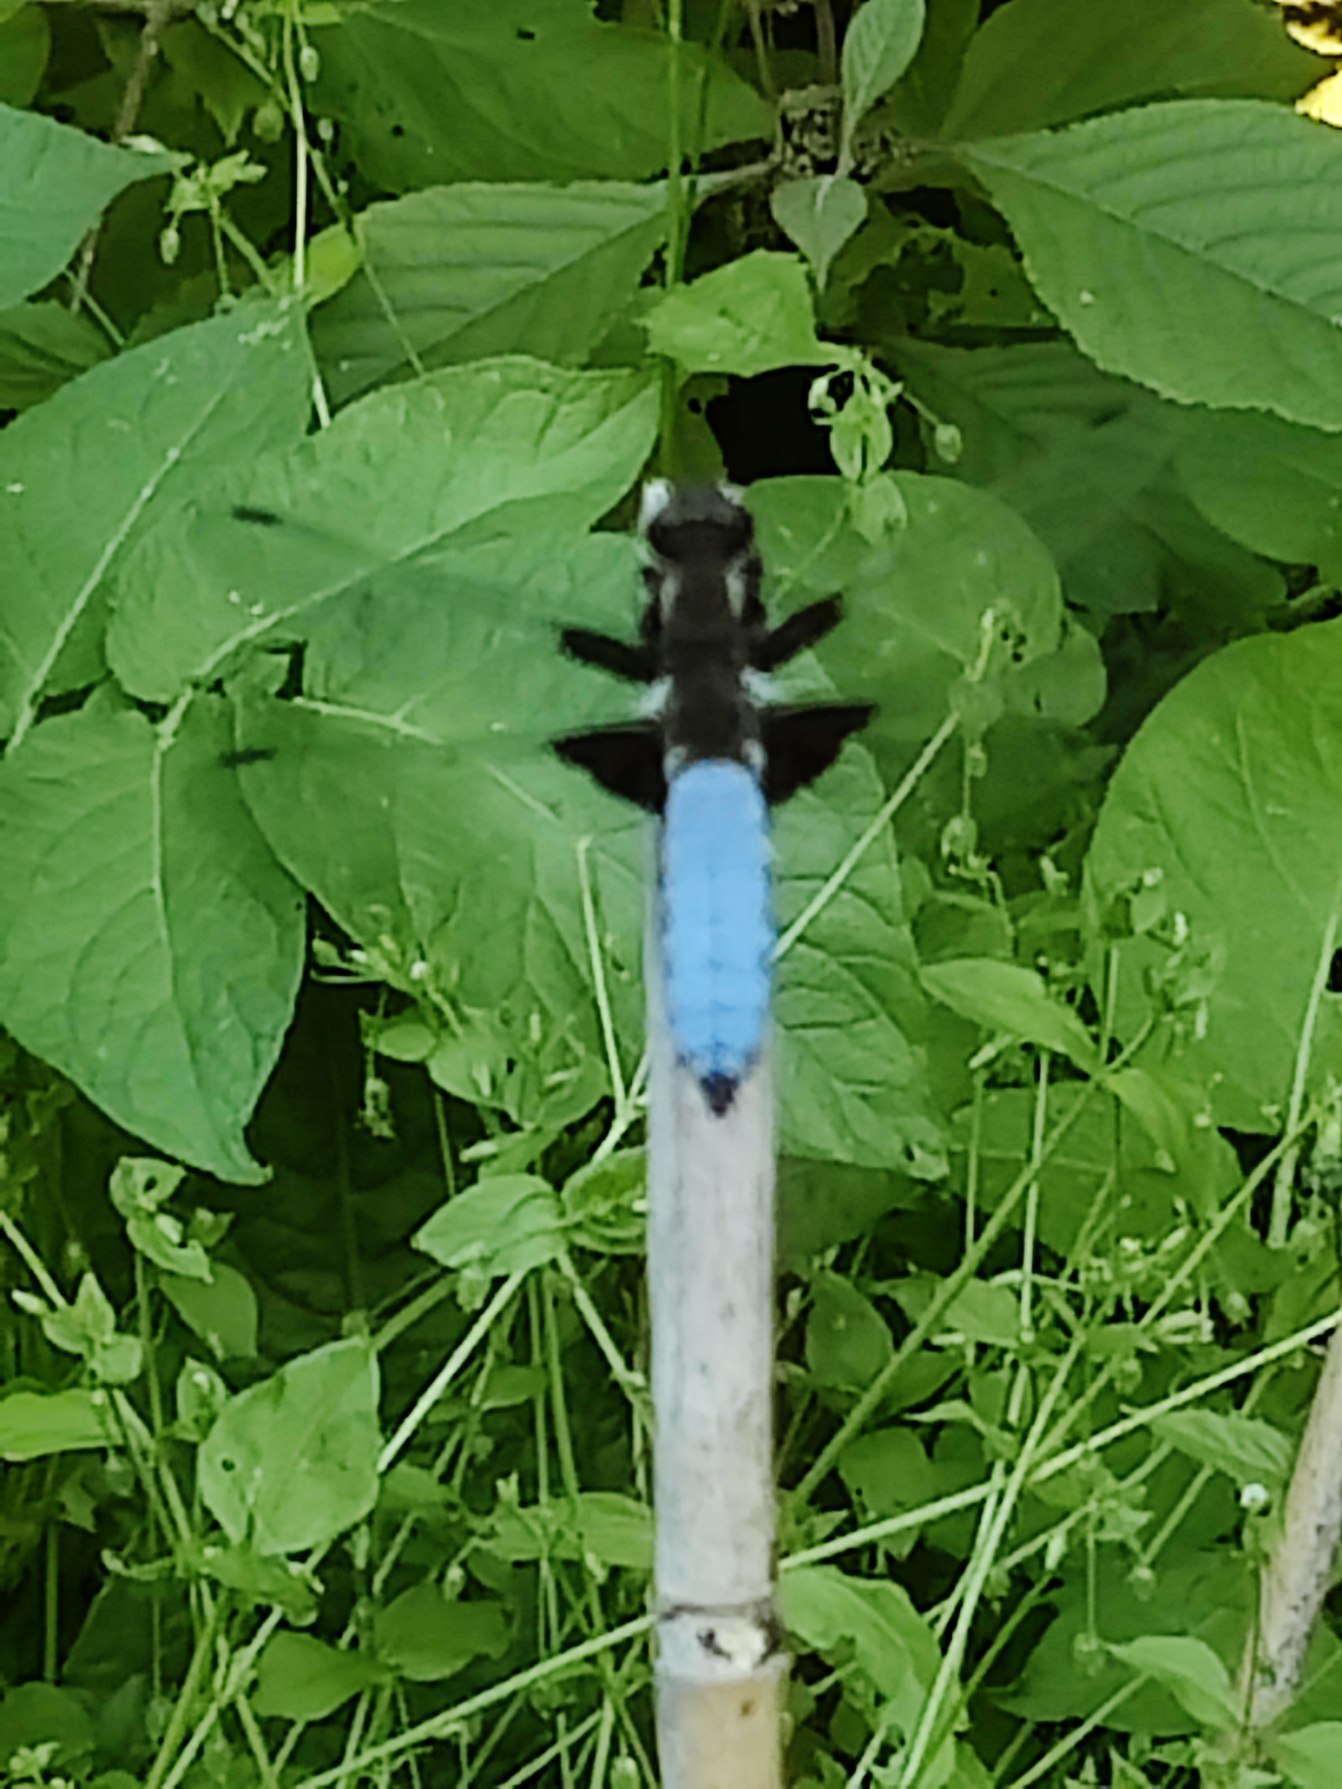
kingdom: Animalia
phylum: Arthropoda
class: Insecta
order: Odonata
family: Libellulidae
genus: Libellula
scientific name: Libellula depressa
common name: Blå libel
